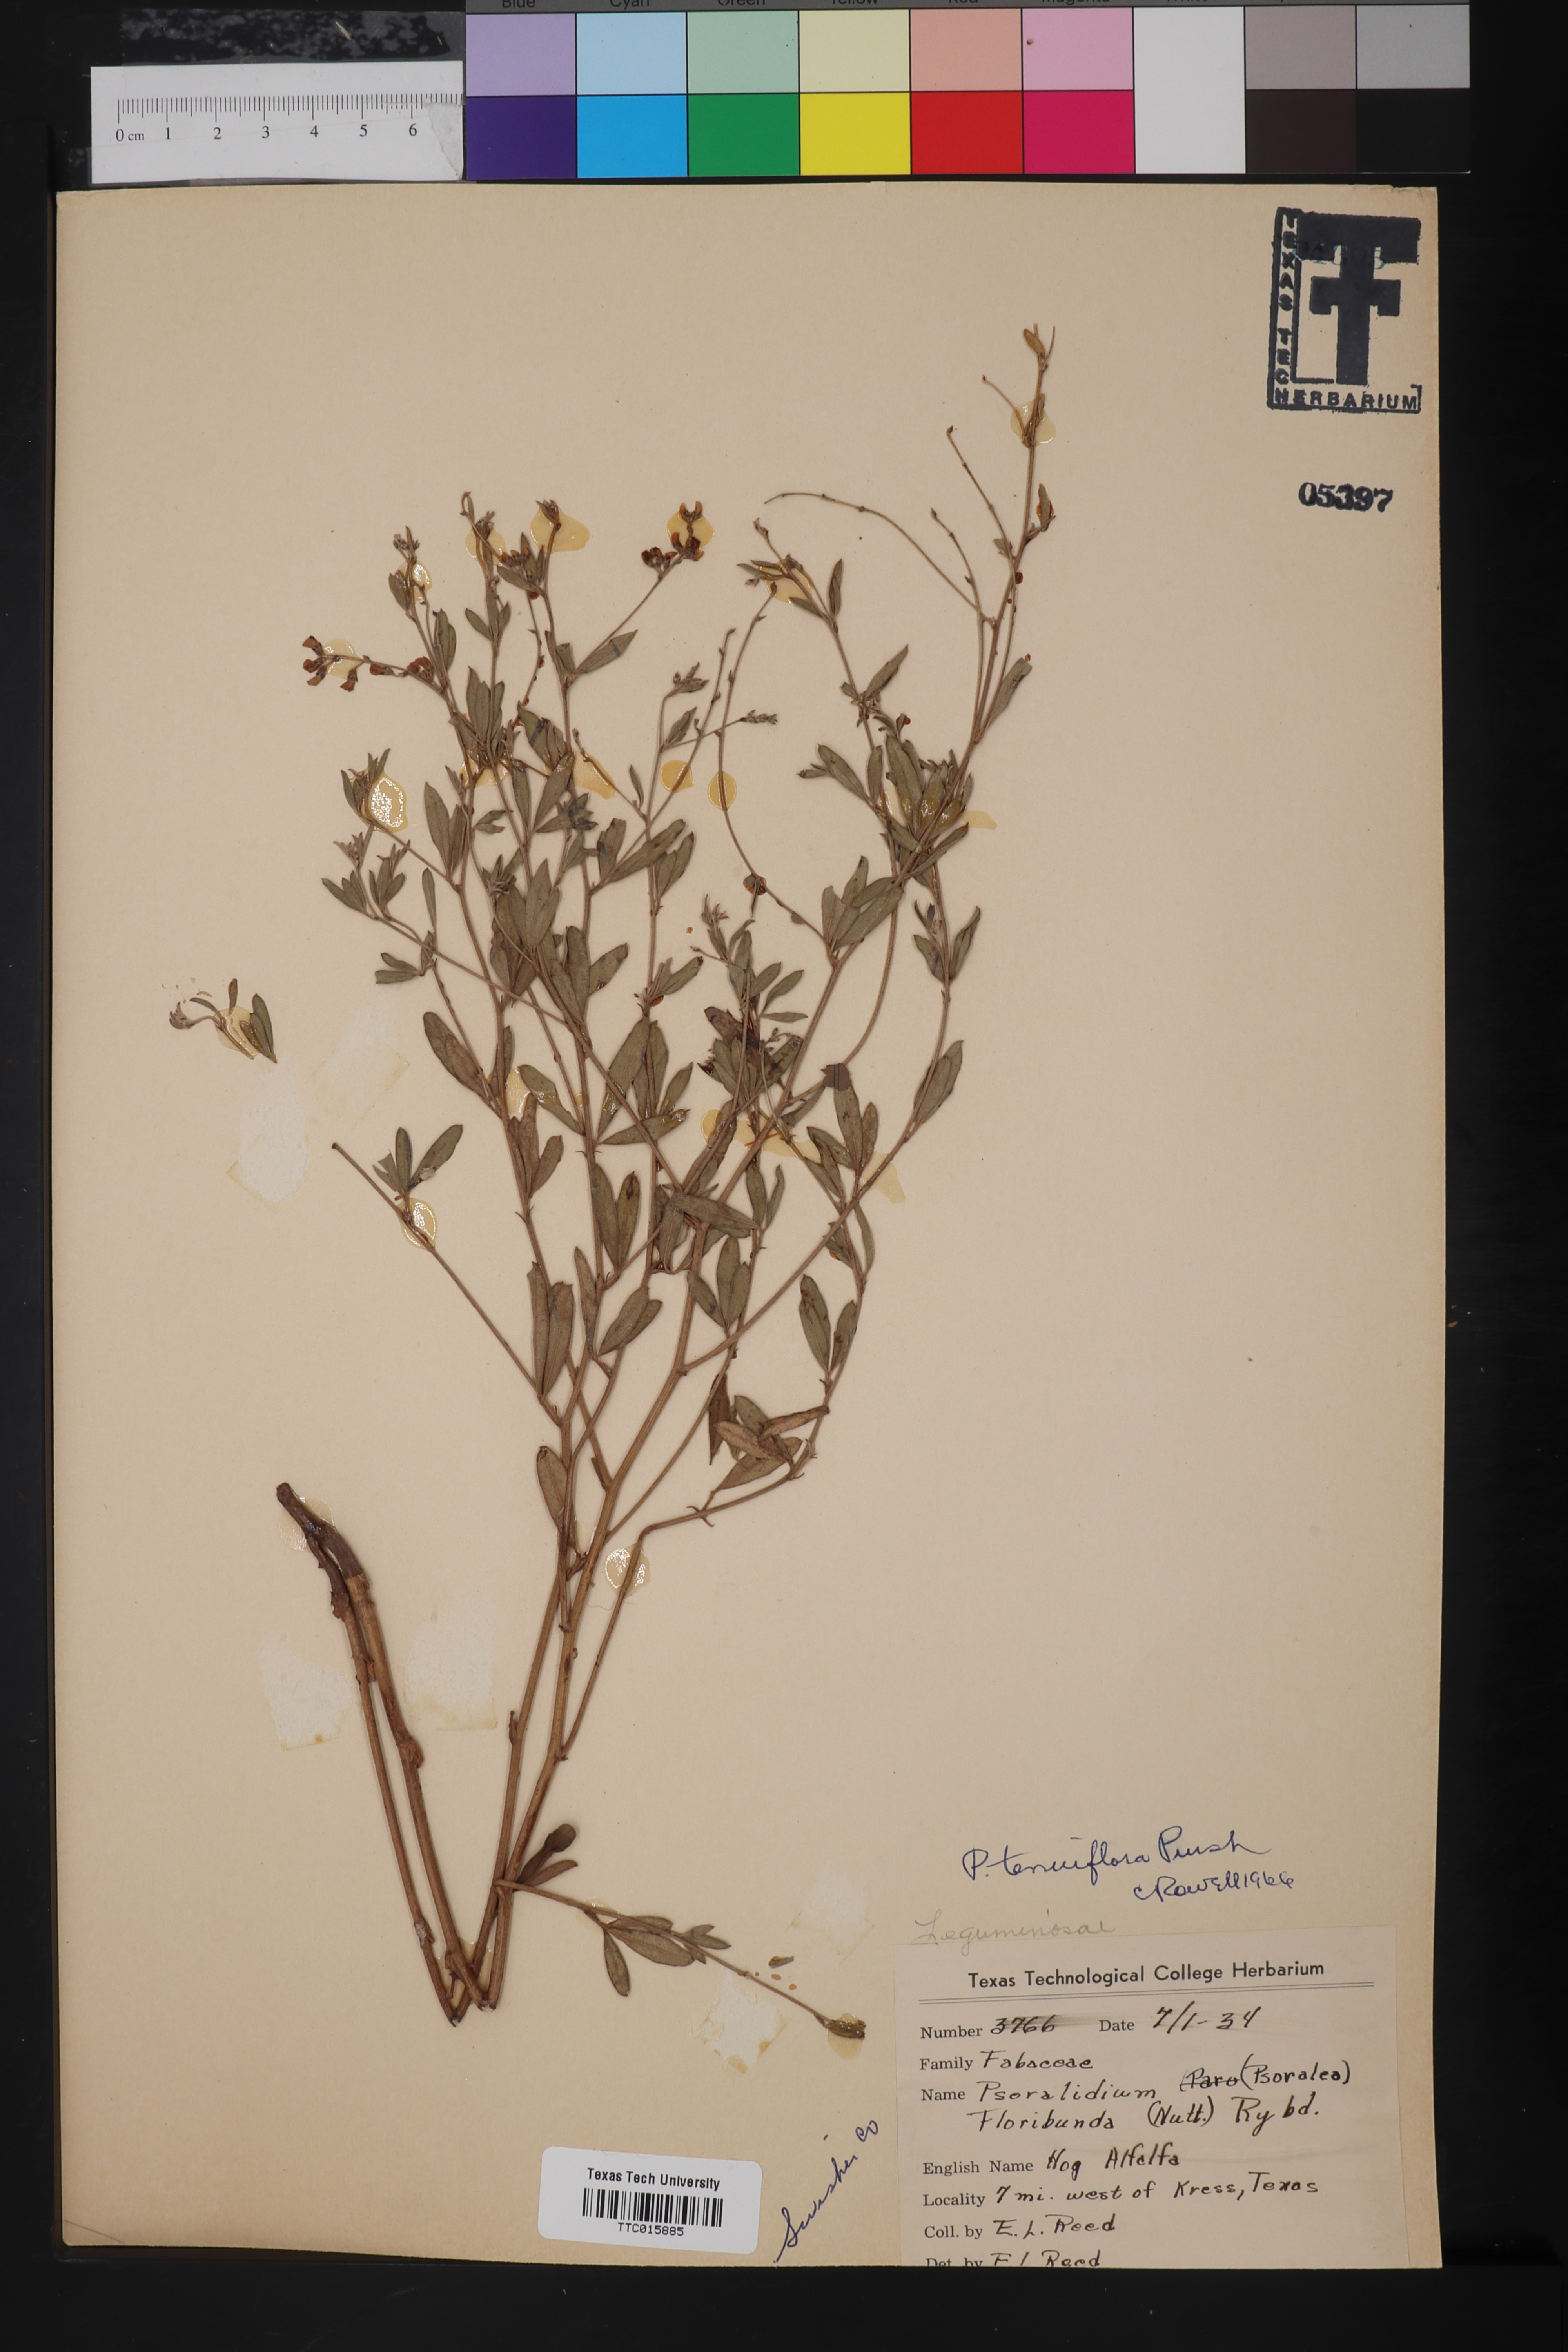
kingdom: Plantae
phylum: Tracheophyta
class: Magnoliopsida
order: Fabales
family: Fabaceae
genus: Pediomelum
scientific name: Pediomelum tenuiflorum
